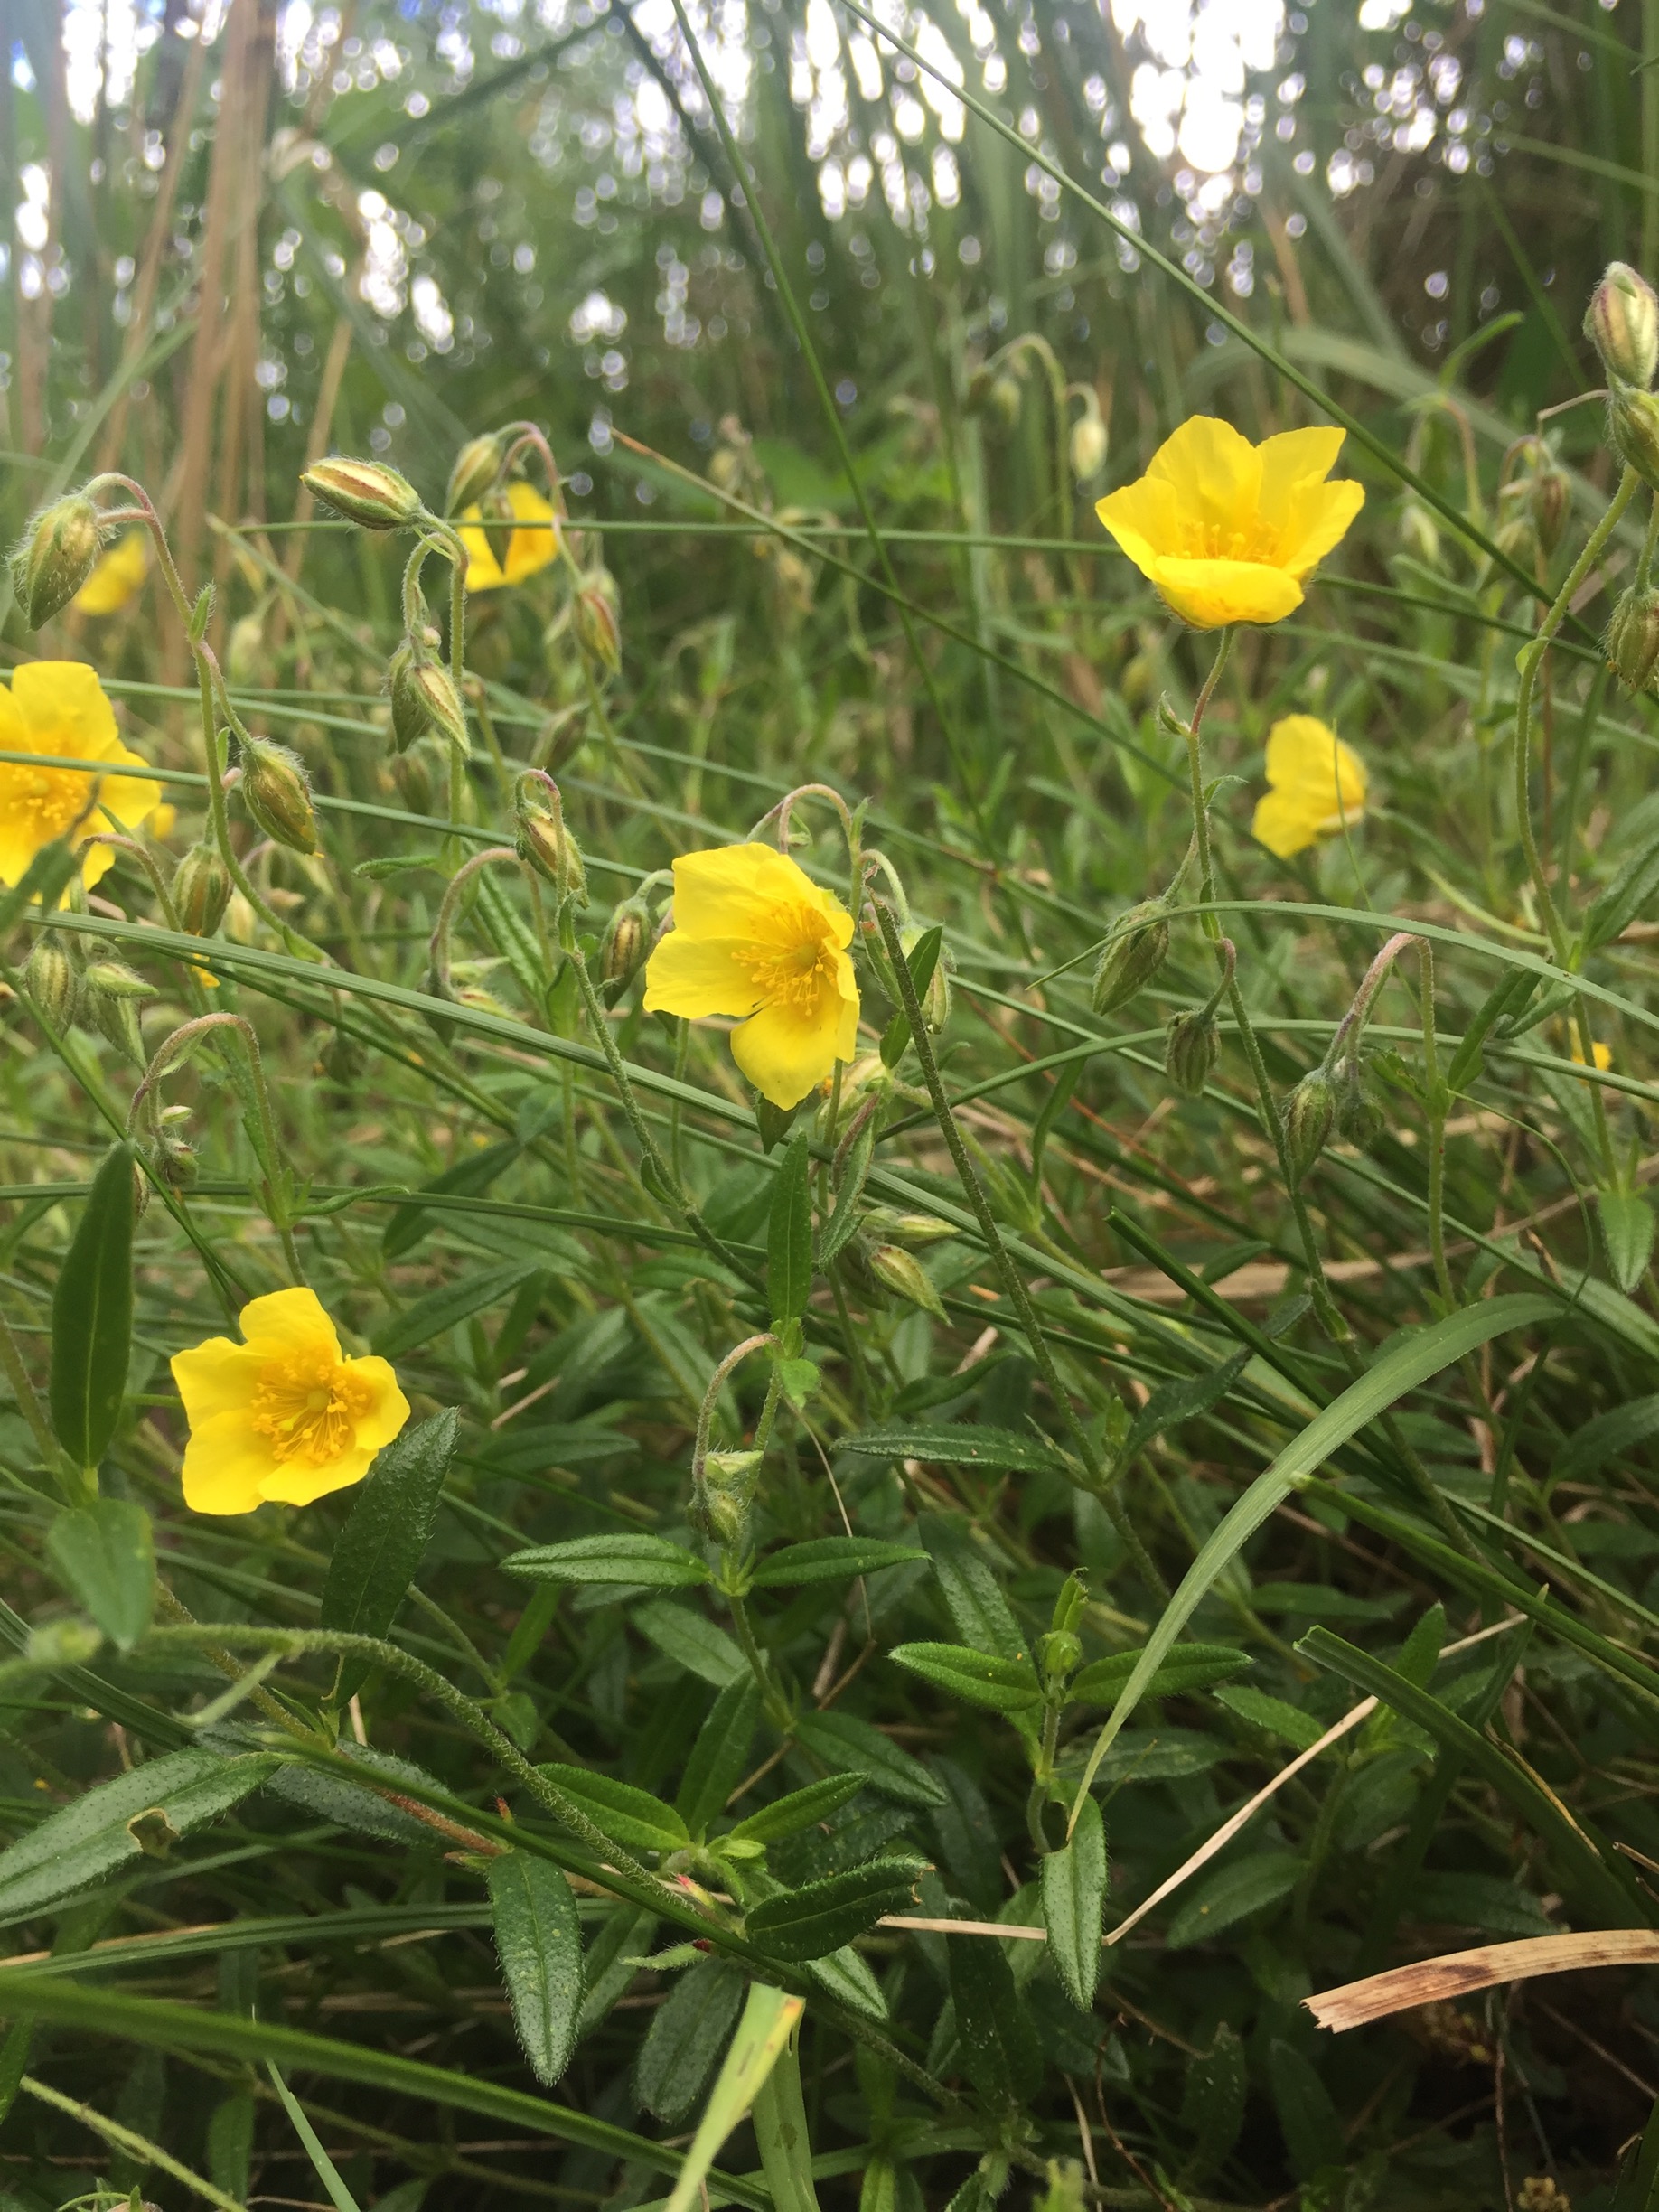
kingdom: Plantae
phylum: Tracheophyta
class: Magnoliopsida
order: Malvales
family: Cistaceae
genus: Helianthemum
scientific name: Helianthemum nummularium
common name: Soløje
